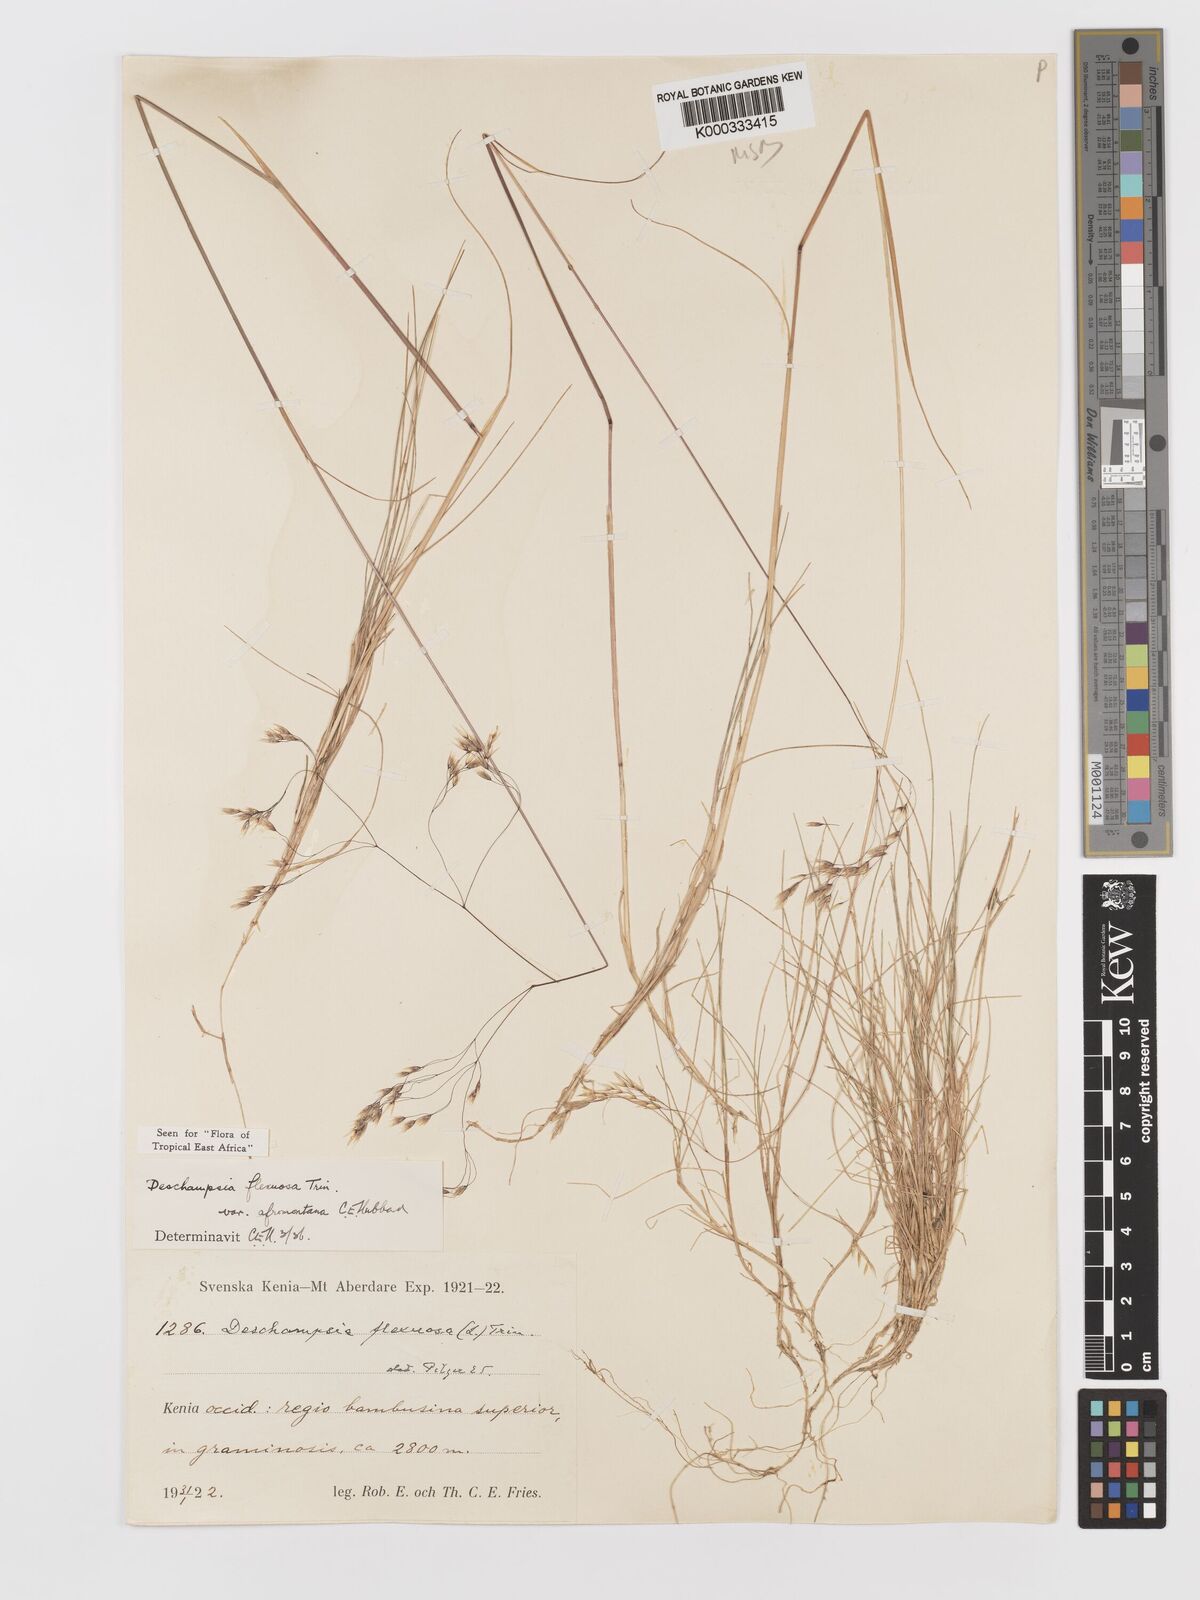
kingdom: Plantae
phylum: Tracheophyta
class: Liliopsida
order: Poales
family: Poaceae
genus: Avenella
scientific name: Avenella flexuosa
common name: Wavy hairgrass
